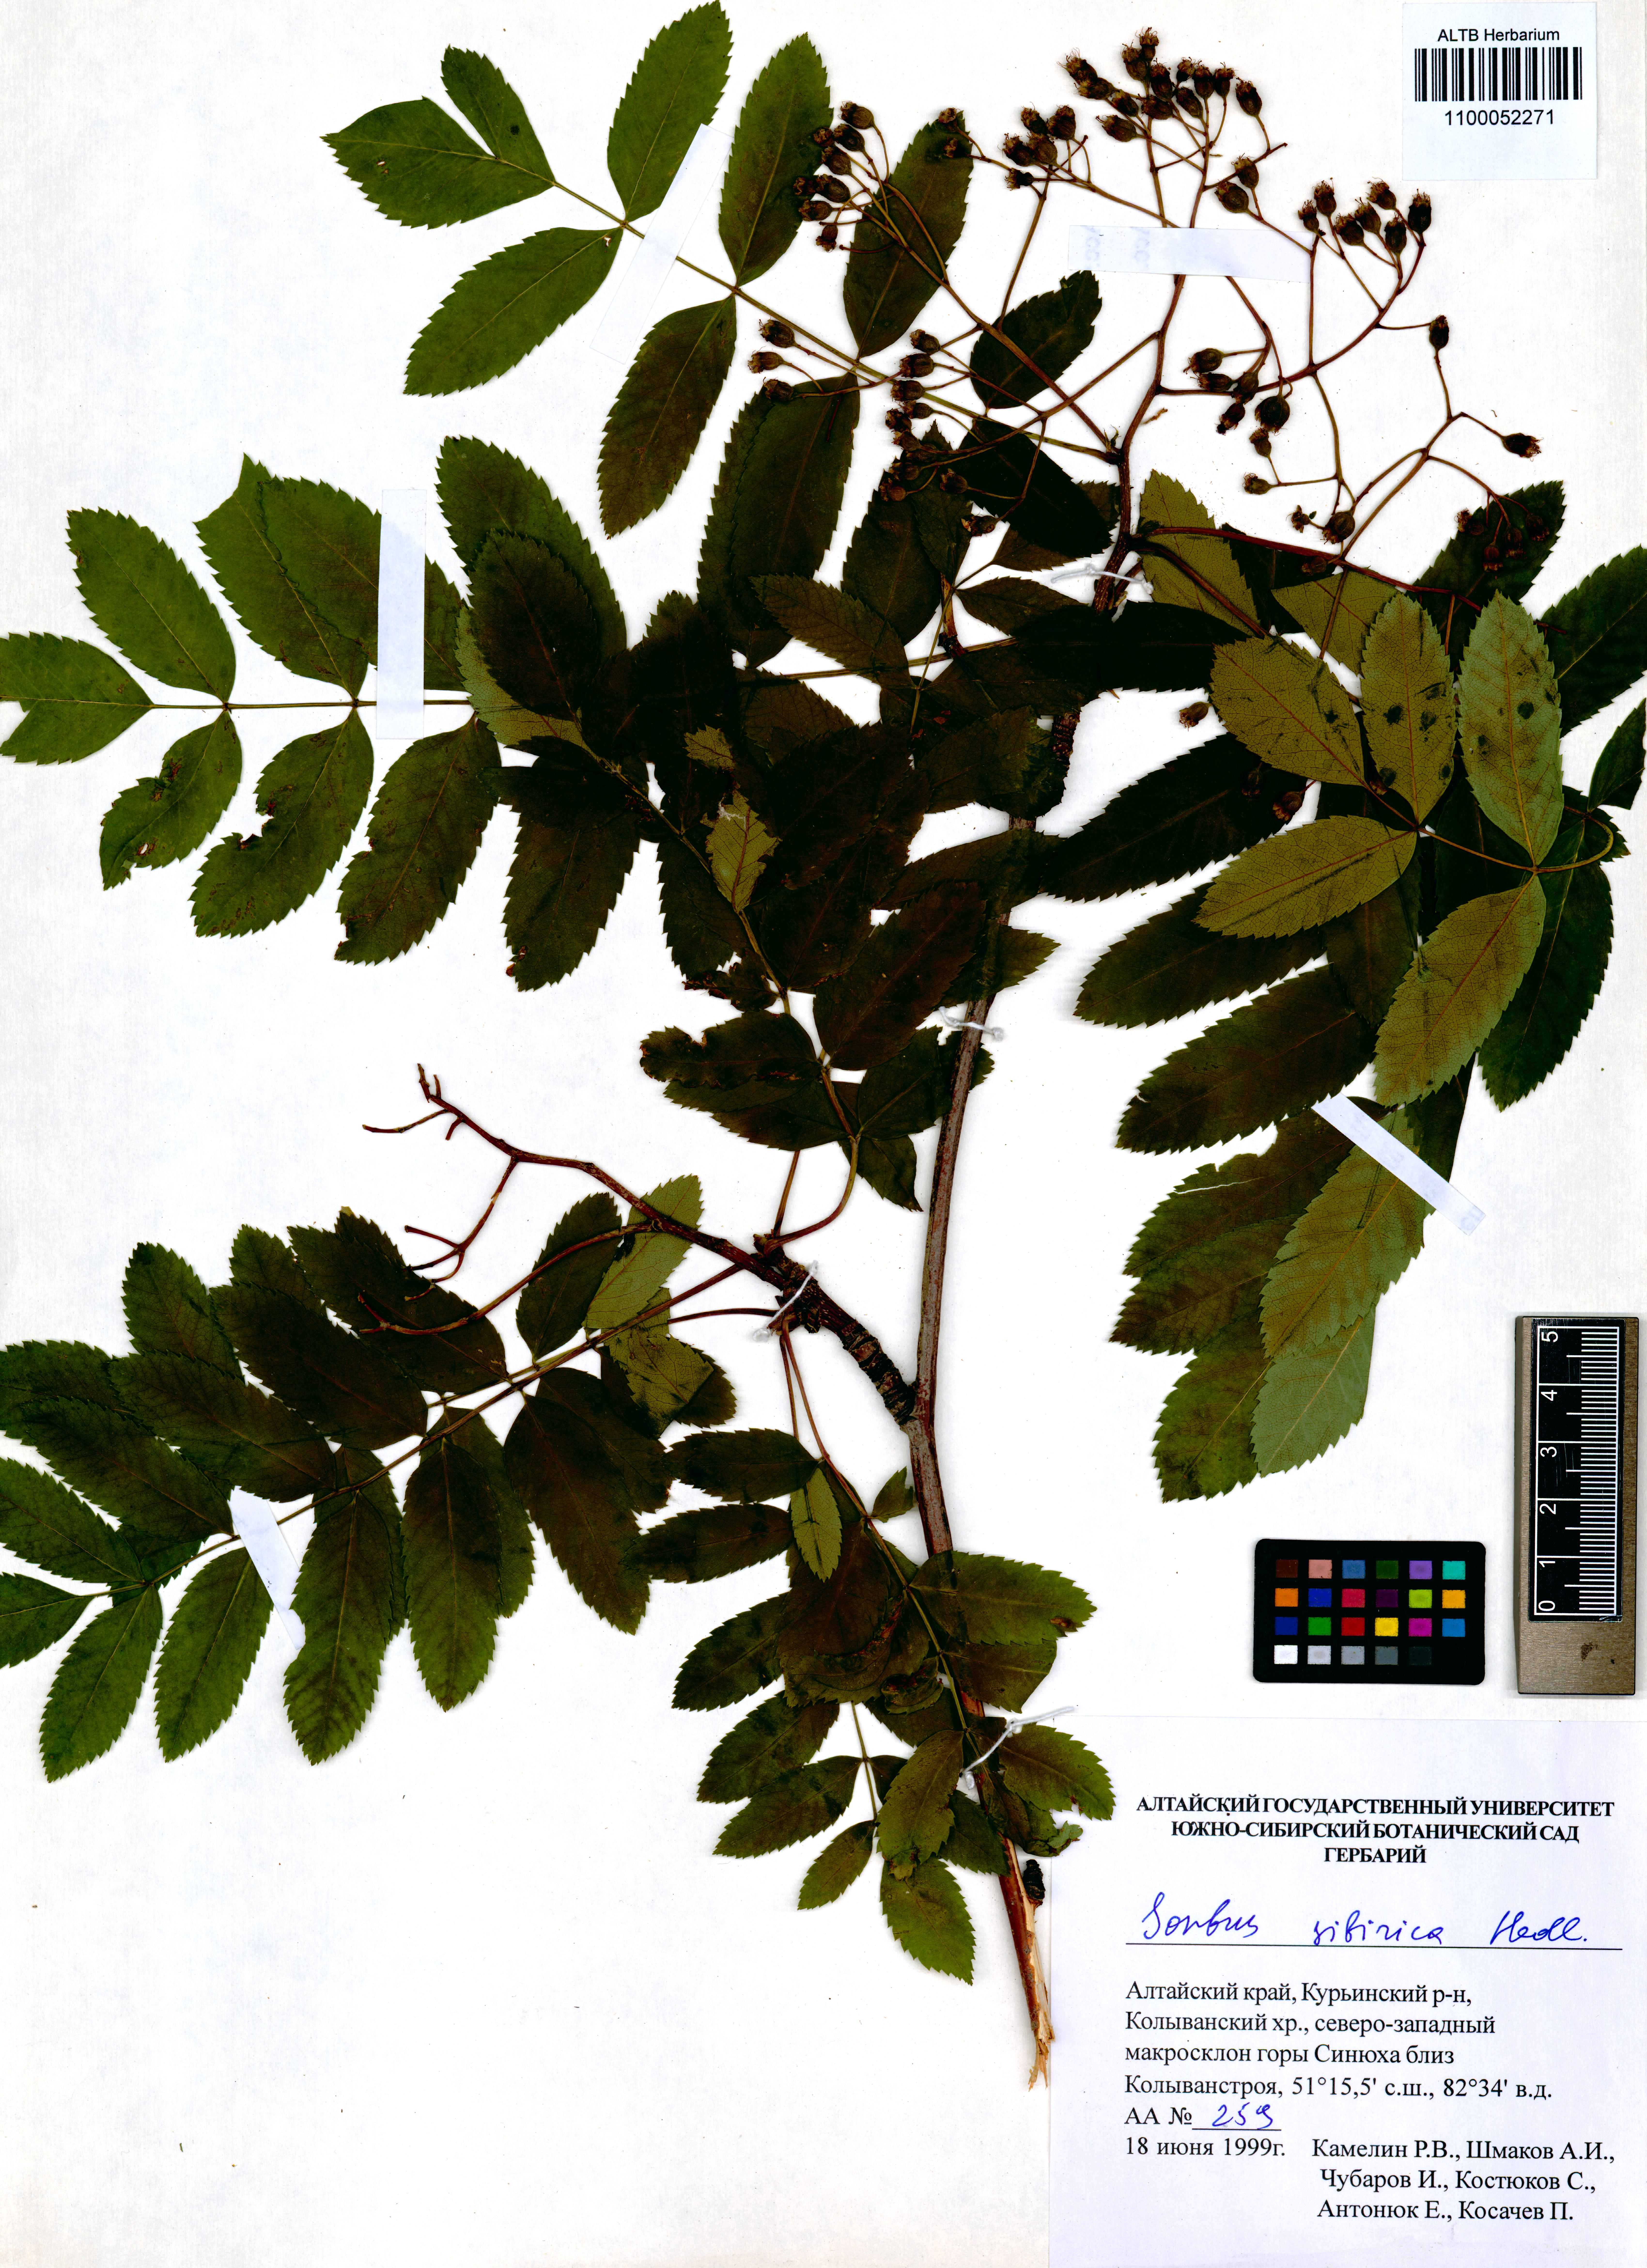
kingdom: Plantae
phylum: Tracheophyta
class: Magnoliopsida
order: Rosales
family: Rosaceae
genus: Sorbus
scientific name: Sorbus aucuparia
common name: Rowan
